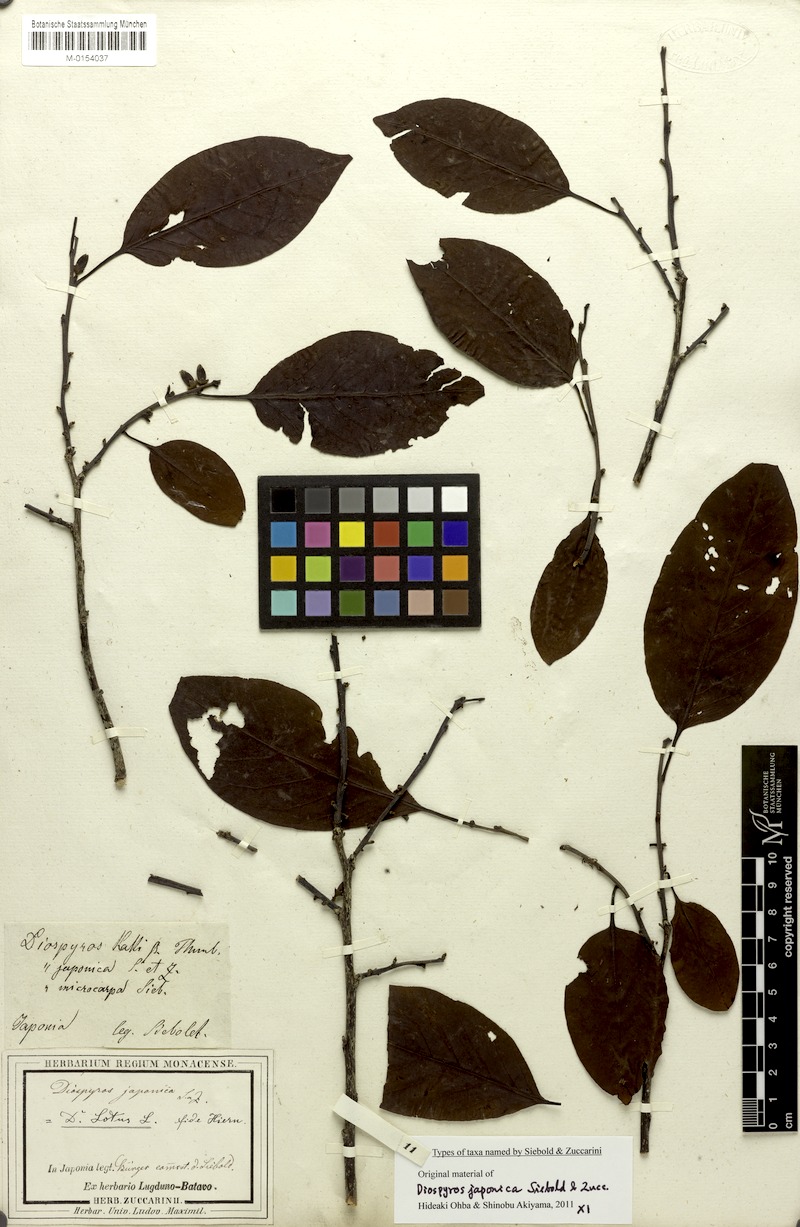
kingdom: Plantae
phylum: Tracheophyta
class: Magnoliopsida
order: Ericales
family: Ebenaceae
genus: Diospyros
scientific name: Diospyros japonica
